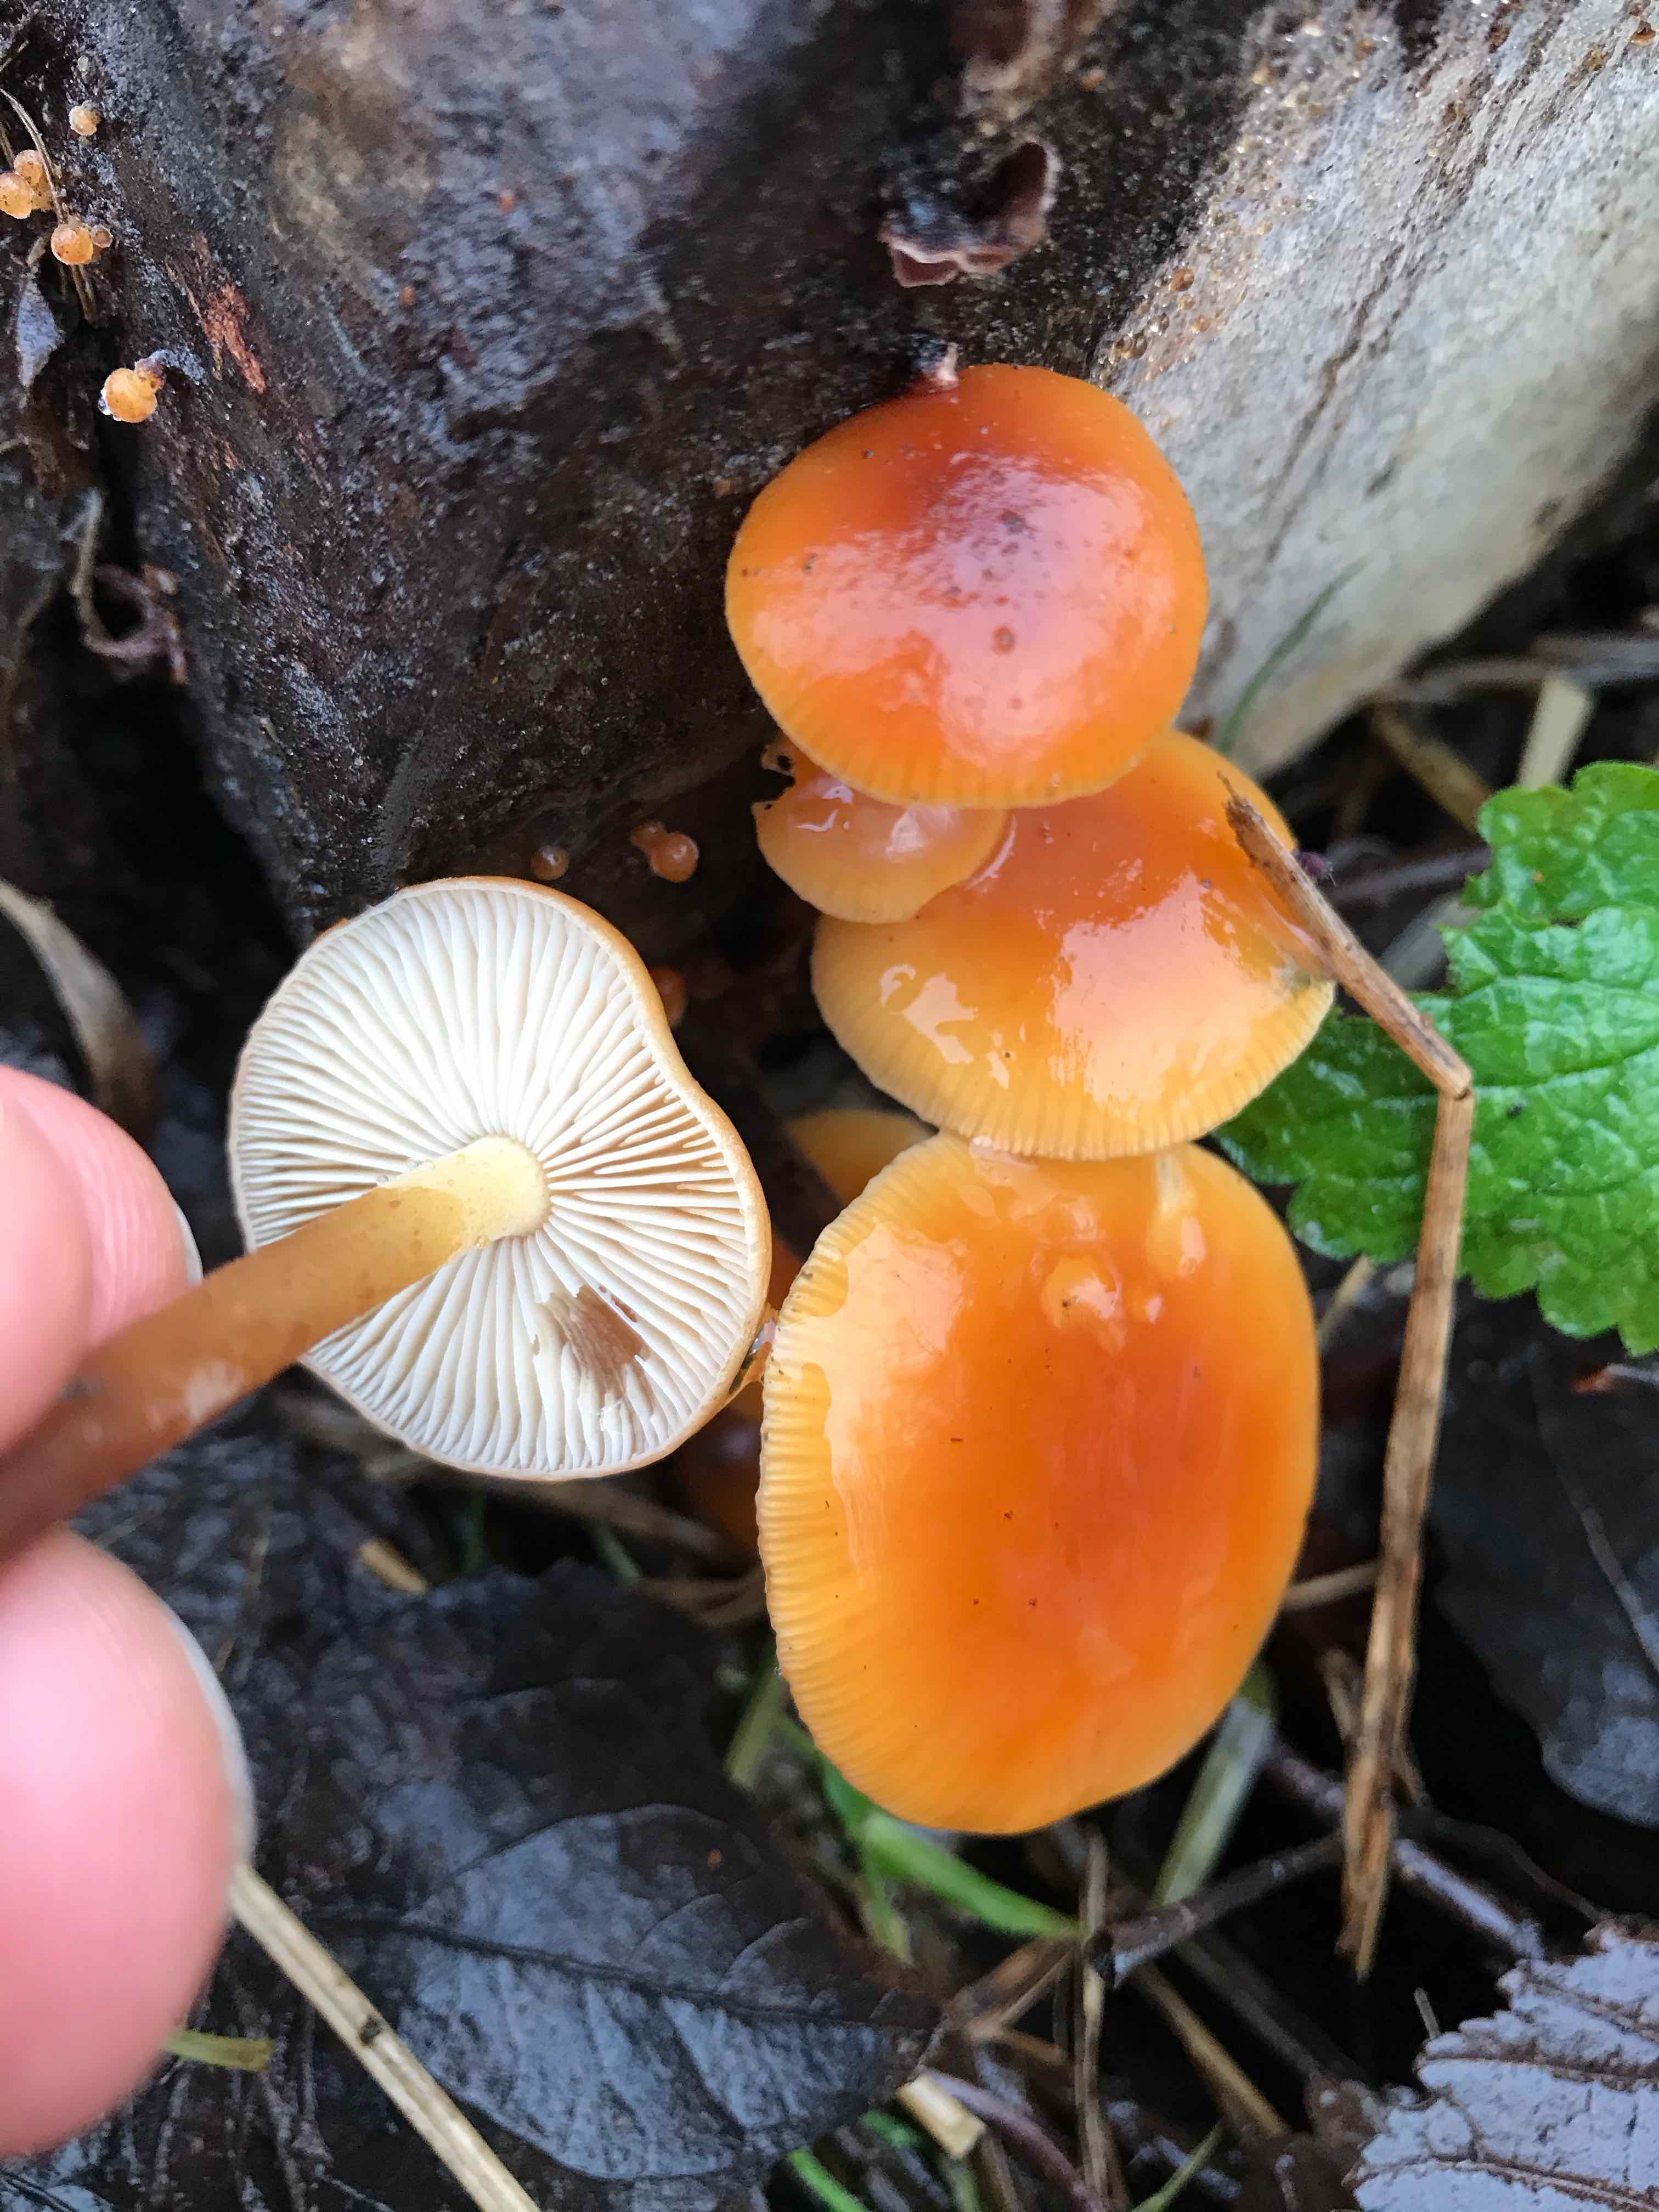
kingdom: Fungi
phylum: Basidiomycota
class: Agaricomycetes
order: Agaricales
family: Physalacriaceae
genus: Flammulina
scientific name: Flammulina velutipes
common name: gul fløjlsfod
